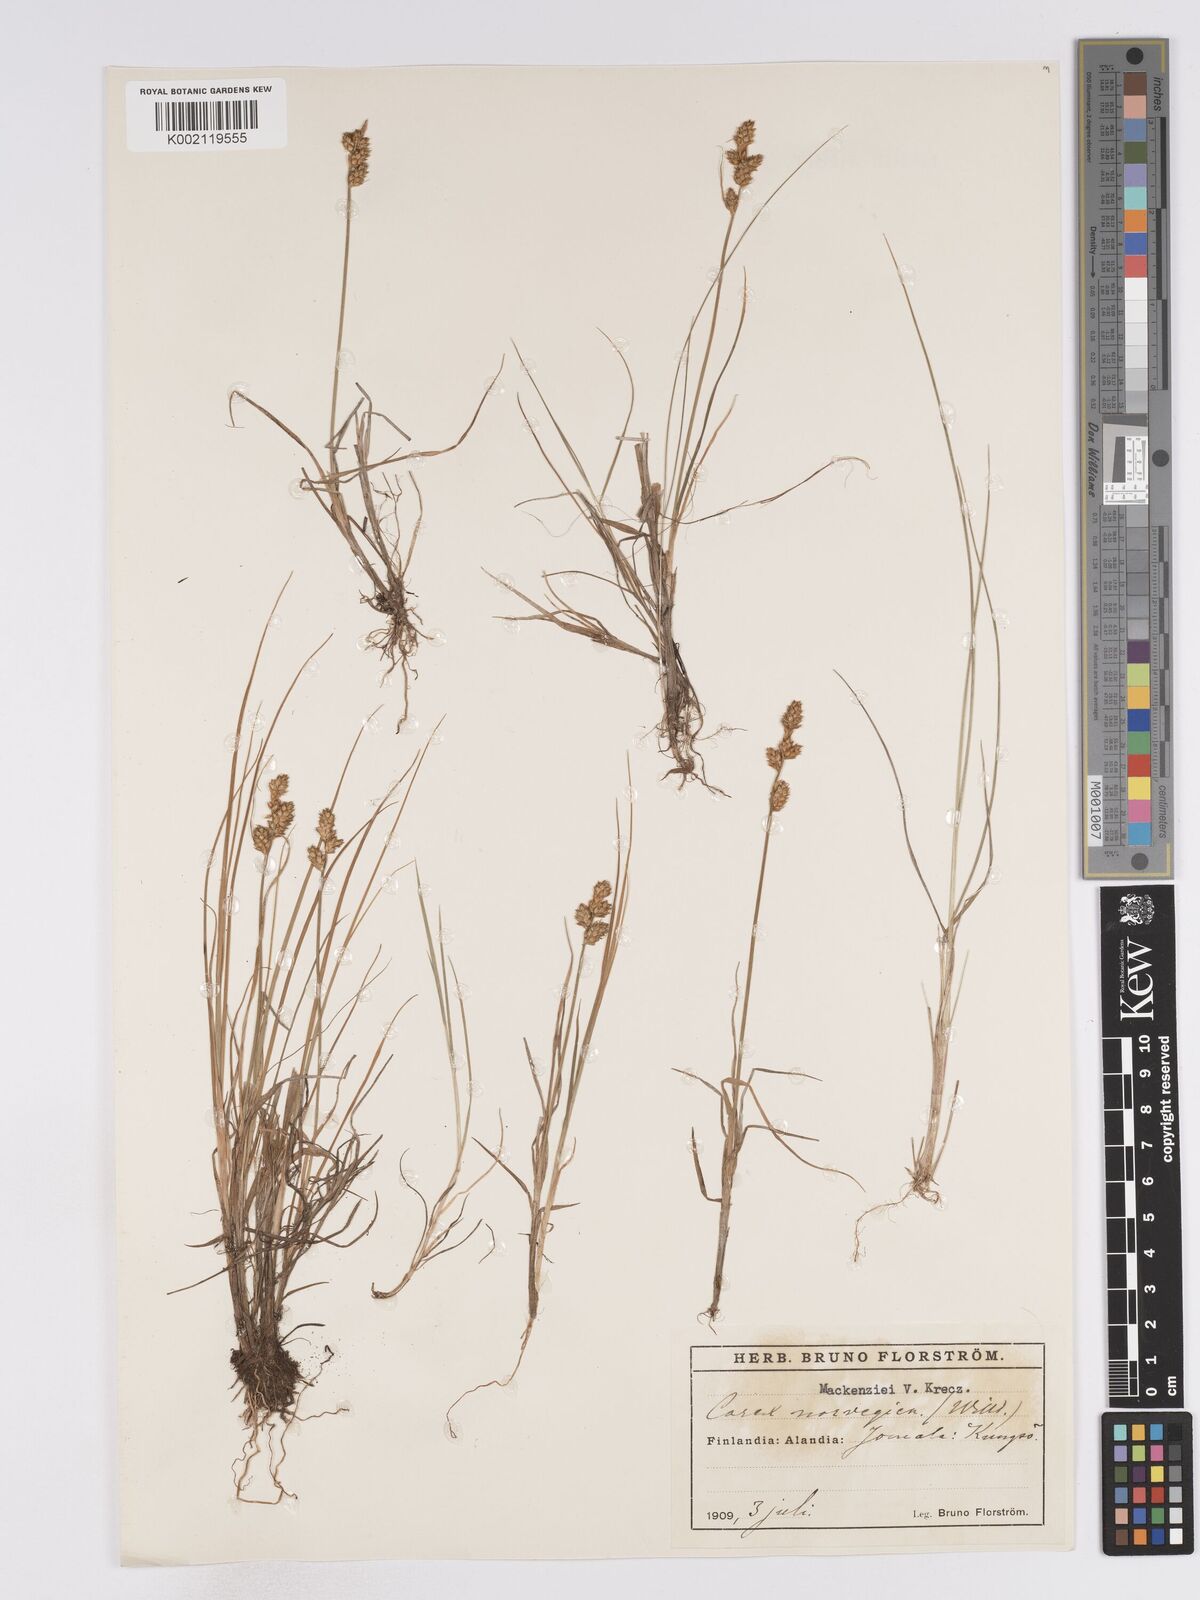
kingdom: Plantae
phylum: Tracheophyta
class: Liliopsida
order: Poales
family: Cyperaceae
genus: Carex
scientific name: Carex mackenziei
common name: Mackenzie's sedge
